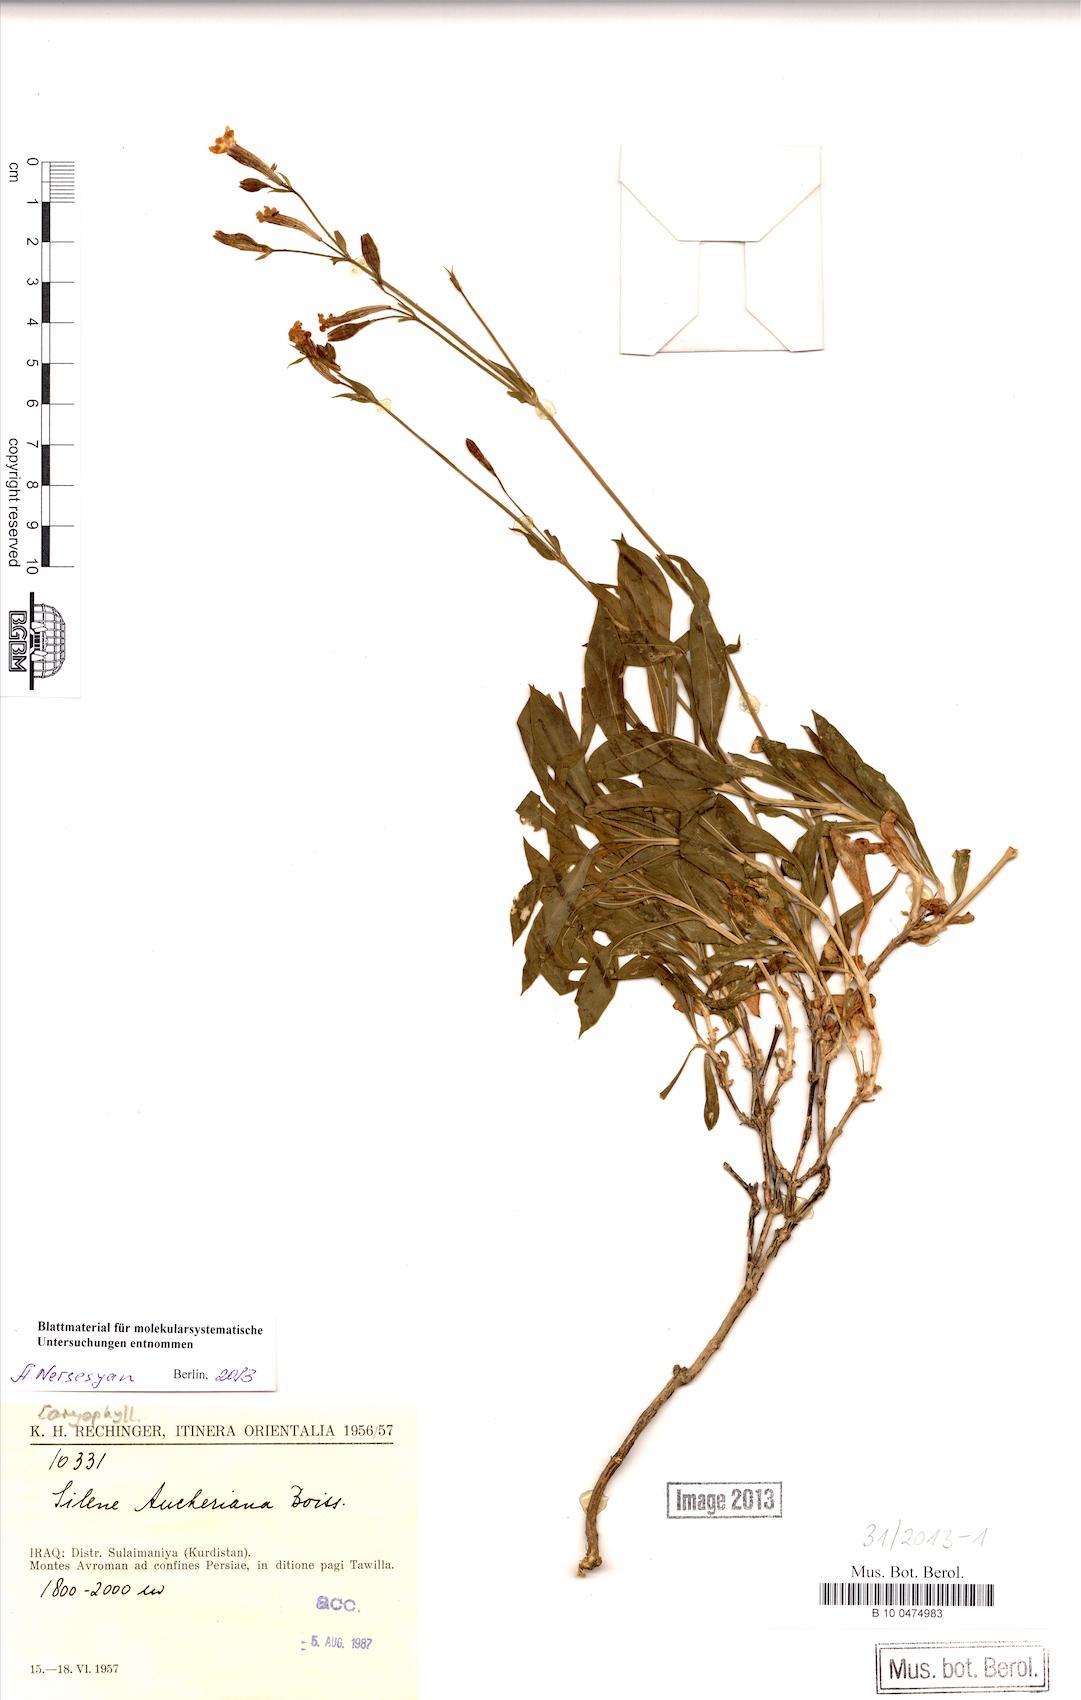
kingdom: Plantae
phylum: Tracheophyta
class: Magnoliopsida
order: Caryophyllales
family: Caryophyllaceae
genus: Silene
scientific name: Silene aucheriana
